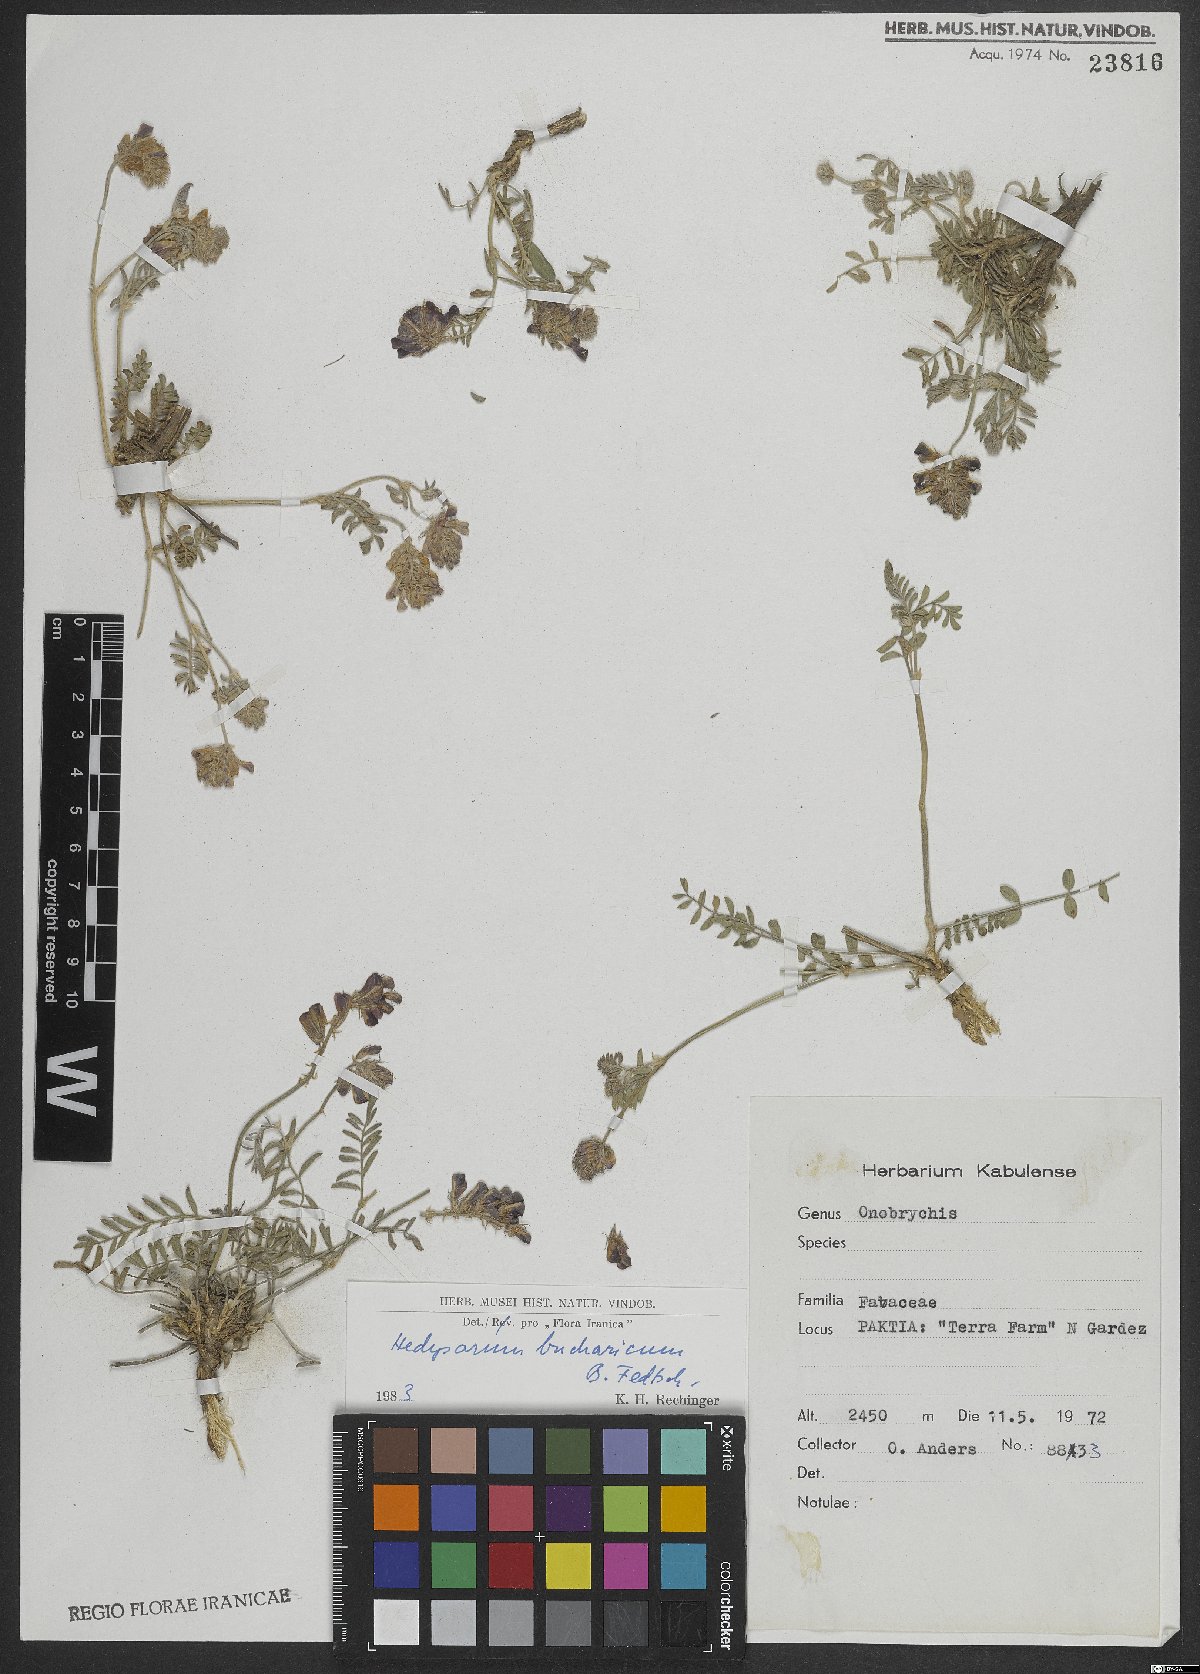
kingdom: Plantae
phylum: Tracheophyta
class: Magnoliopsida
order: Fabales
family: Fabaceae
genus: Hedysarum
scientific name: Hedysarum bucharicum
